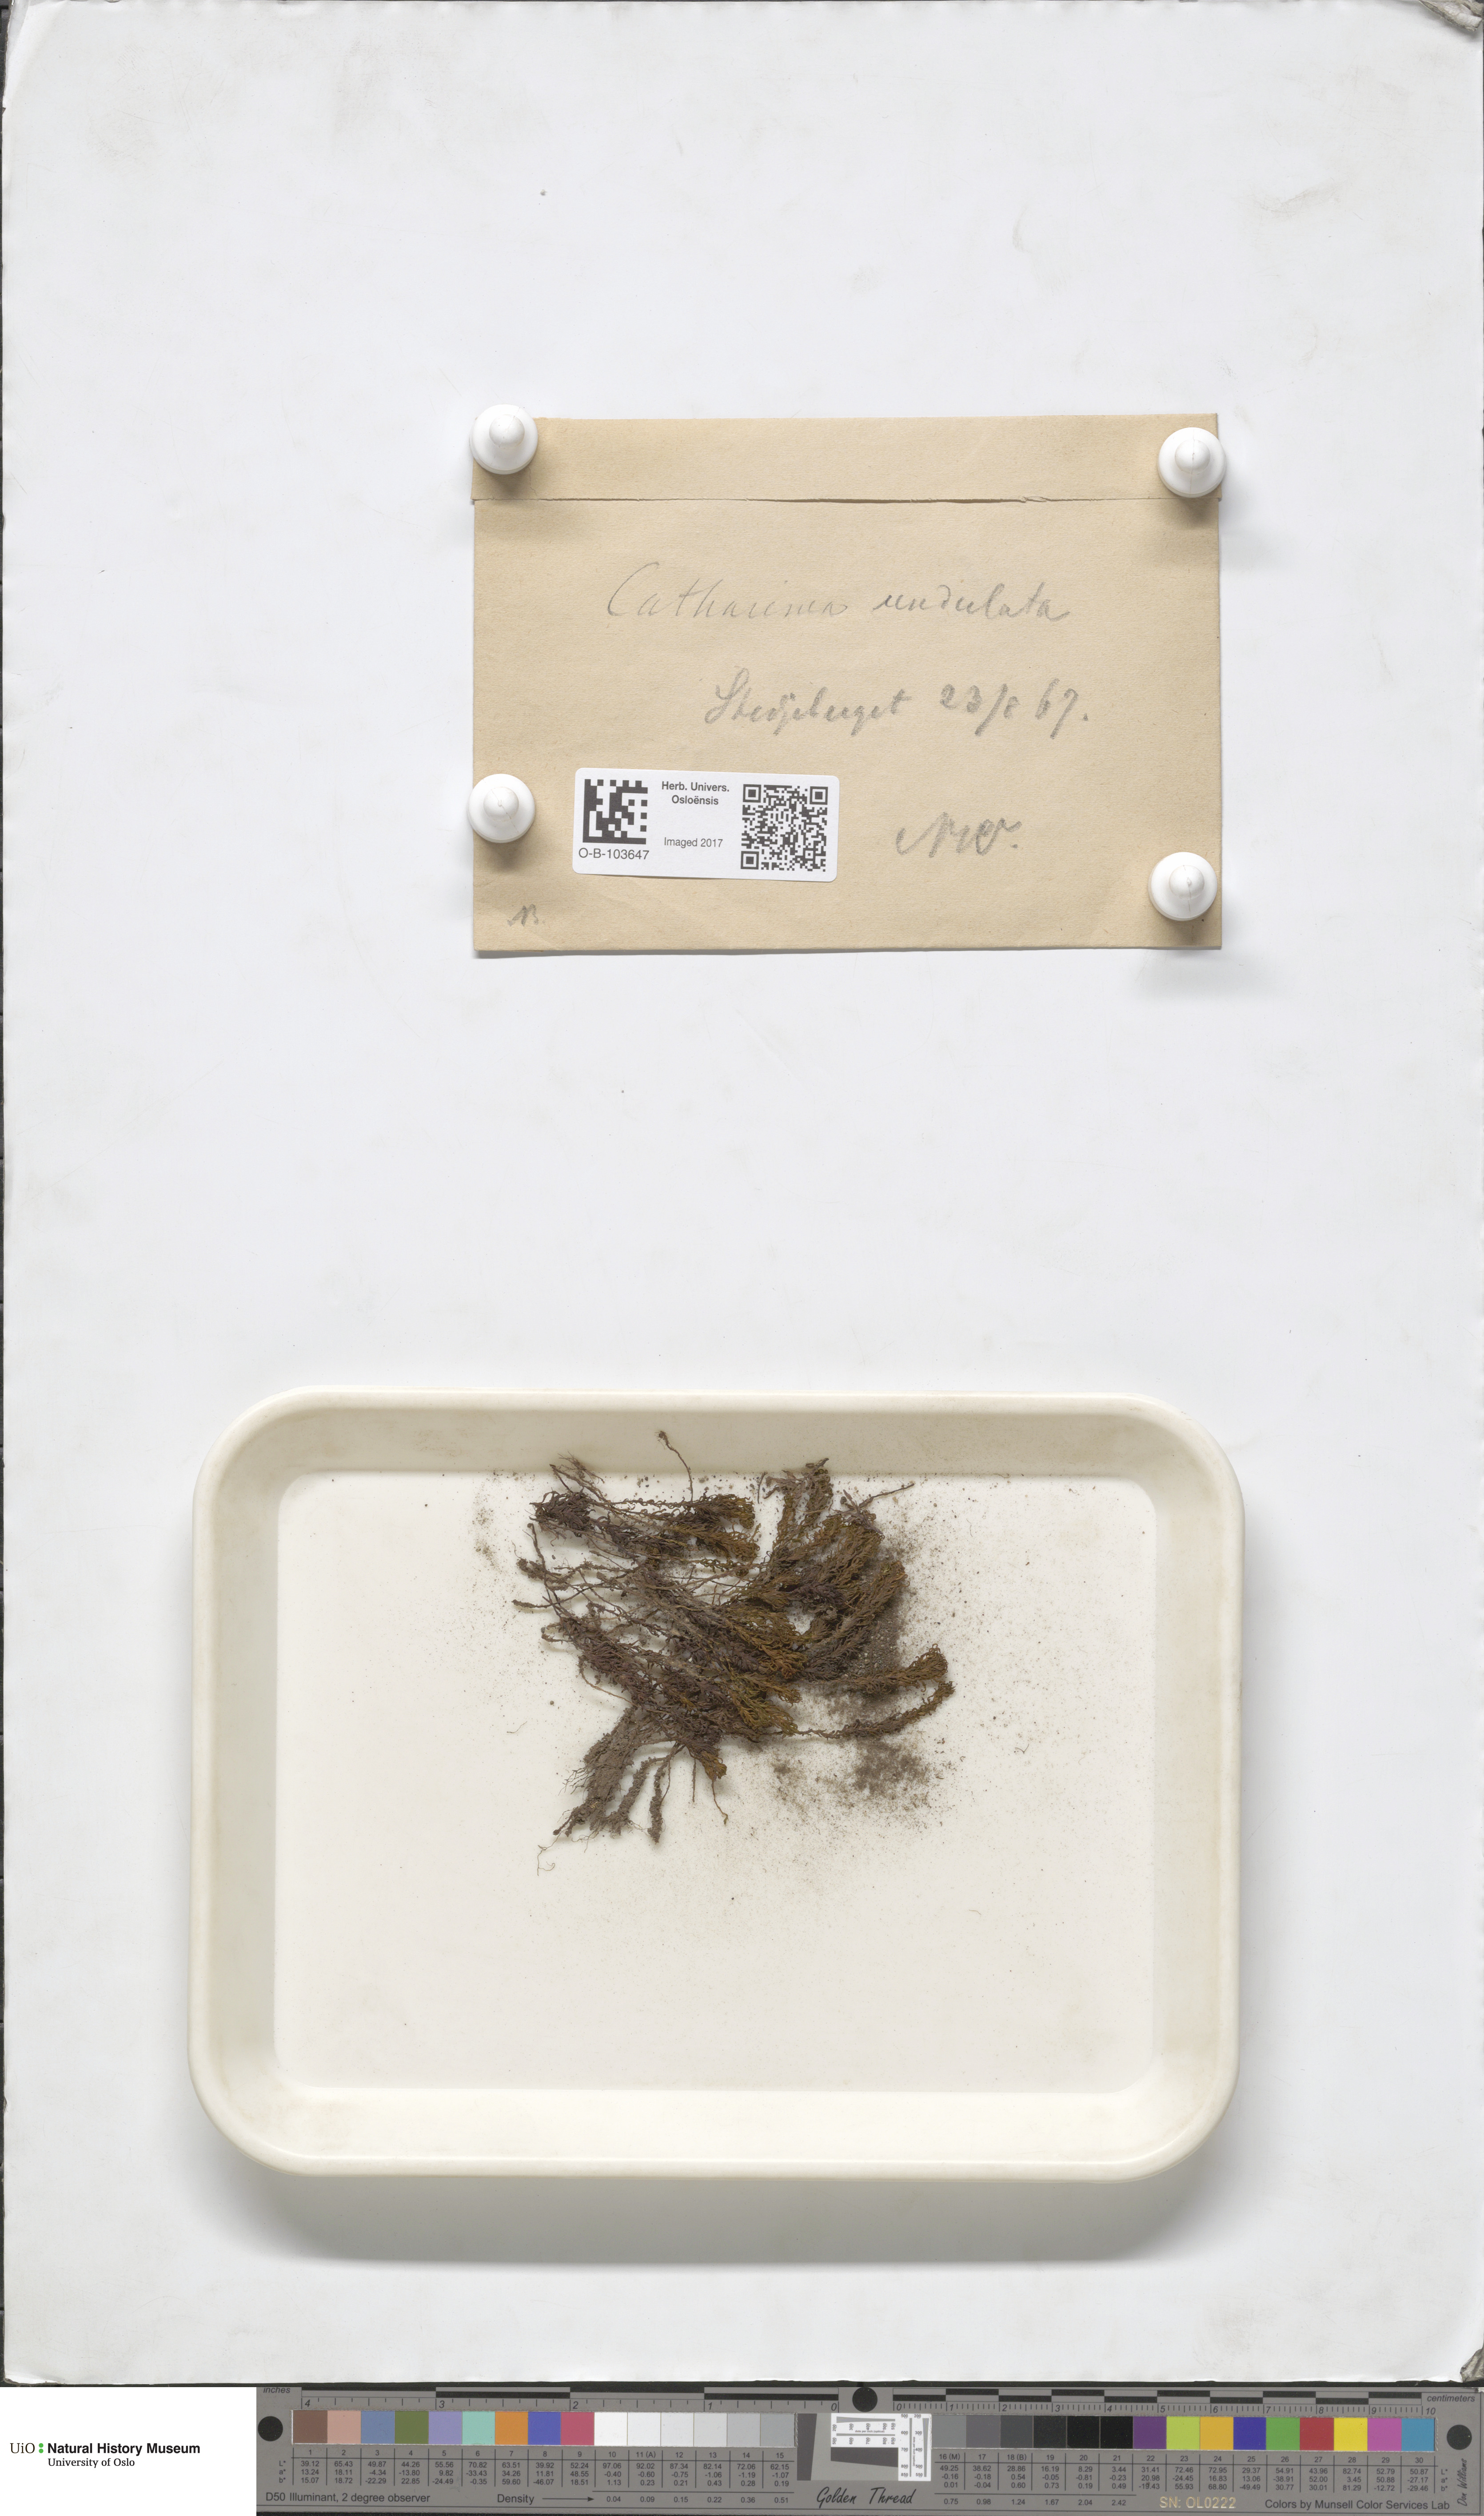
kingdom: Plantae
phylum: Bryophyta
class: Polytrichopsida
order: Polytrichales
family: Polytrichaceae
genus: Atrichum
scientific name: Atrichum undulatum
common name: Common smoothcap
